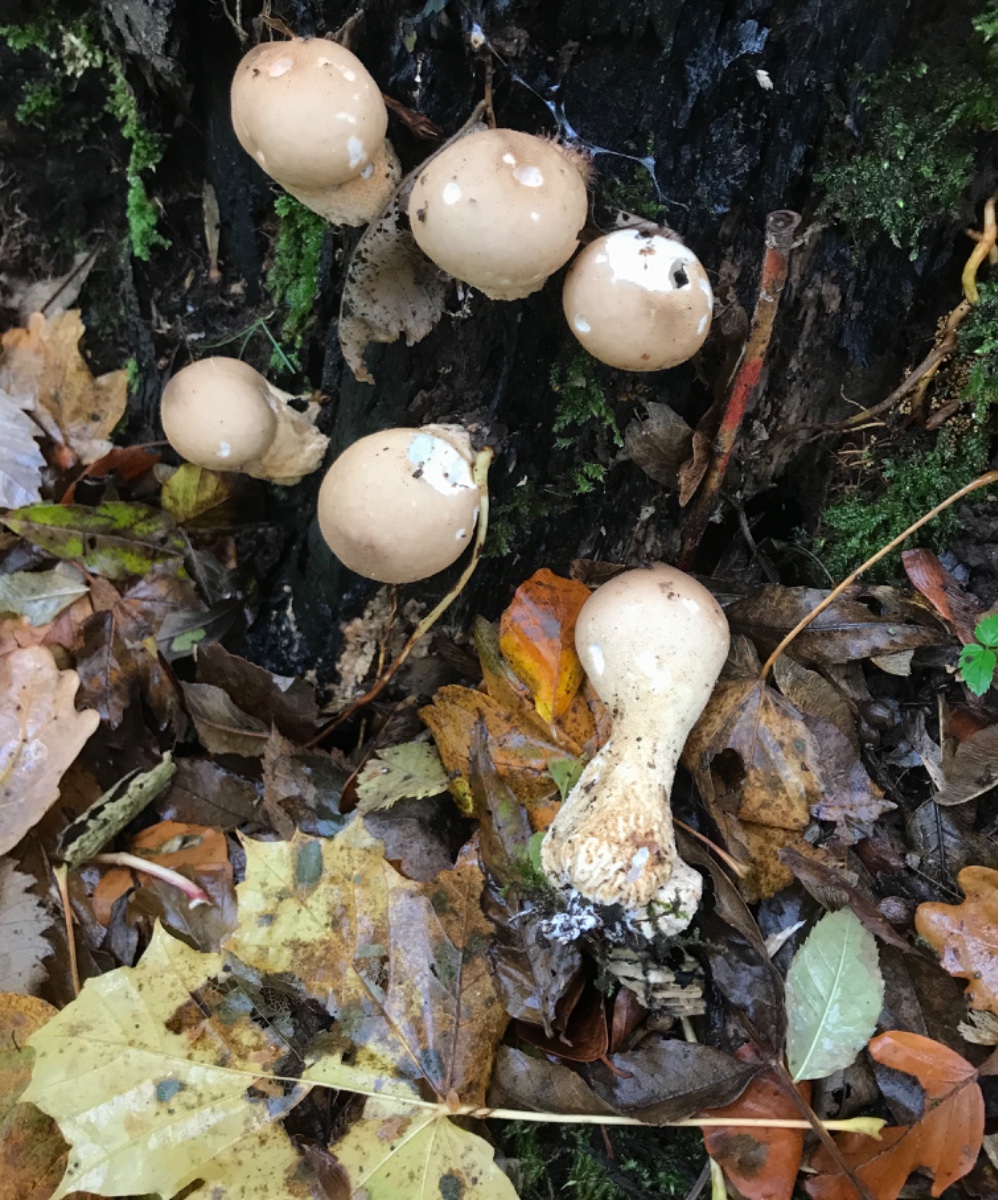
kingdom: Fungi
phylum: Basidiomycota
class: Agaricomycetes
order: Agaricales
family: Lycoperdaceae
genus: Apioperdon
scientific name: Apioperdon pyriforme
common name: pære-støvbold
